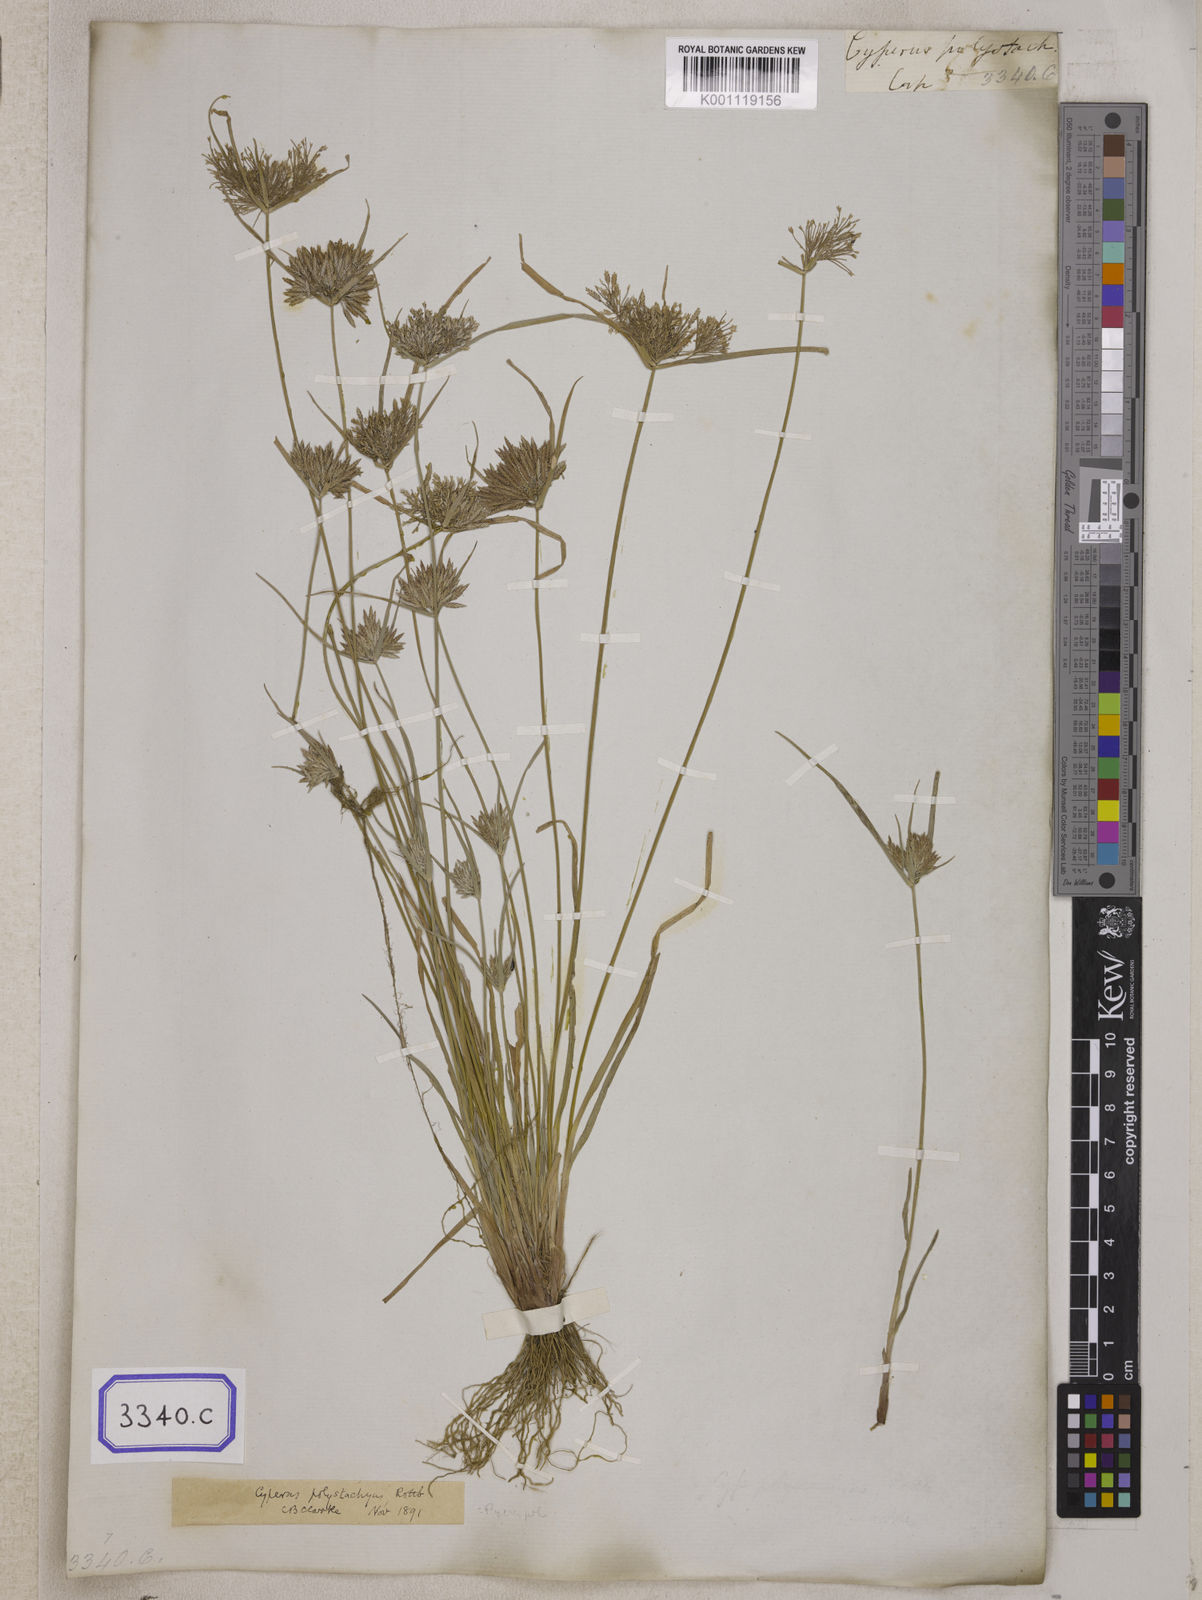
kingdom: Plantae
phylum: Tracheophyta
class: Liliopsida
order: Poales
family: Cyperaceae
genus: Cyperus
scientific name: Cyperus
